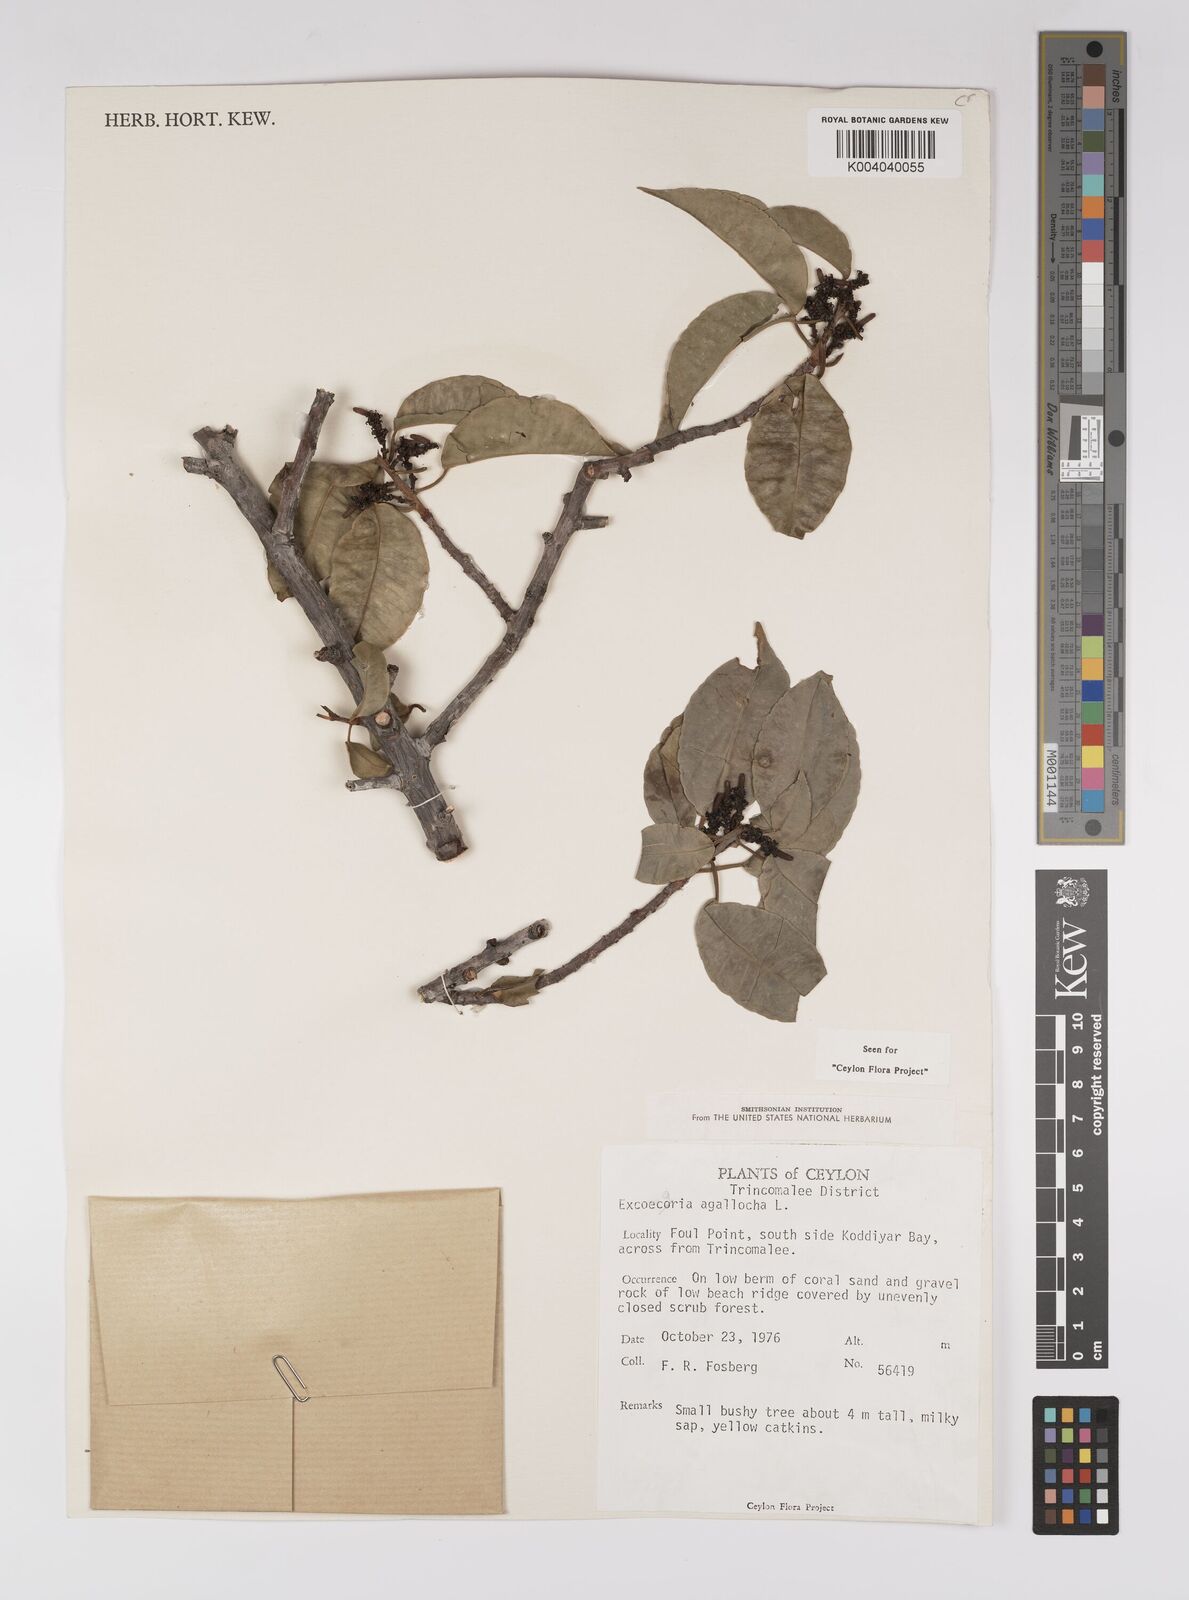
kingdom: Plantae
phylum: Tracheophyta
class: Magnoliopsida
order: Malpighiales
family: Euphorbiaceae
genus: Excoecaria
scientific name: Excoecaria agallocha
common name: River poisontree
